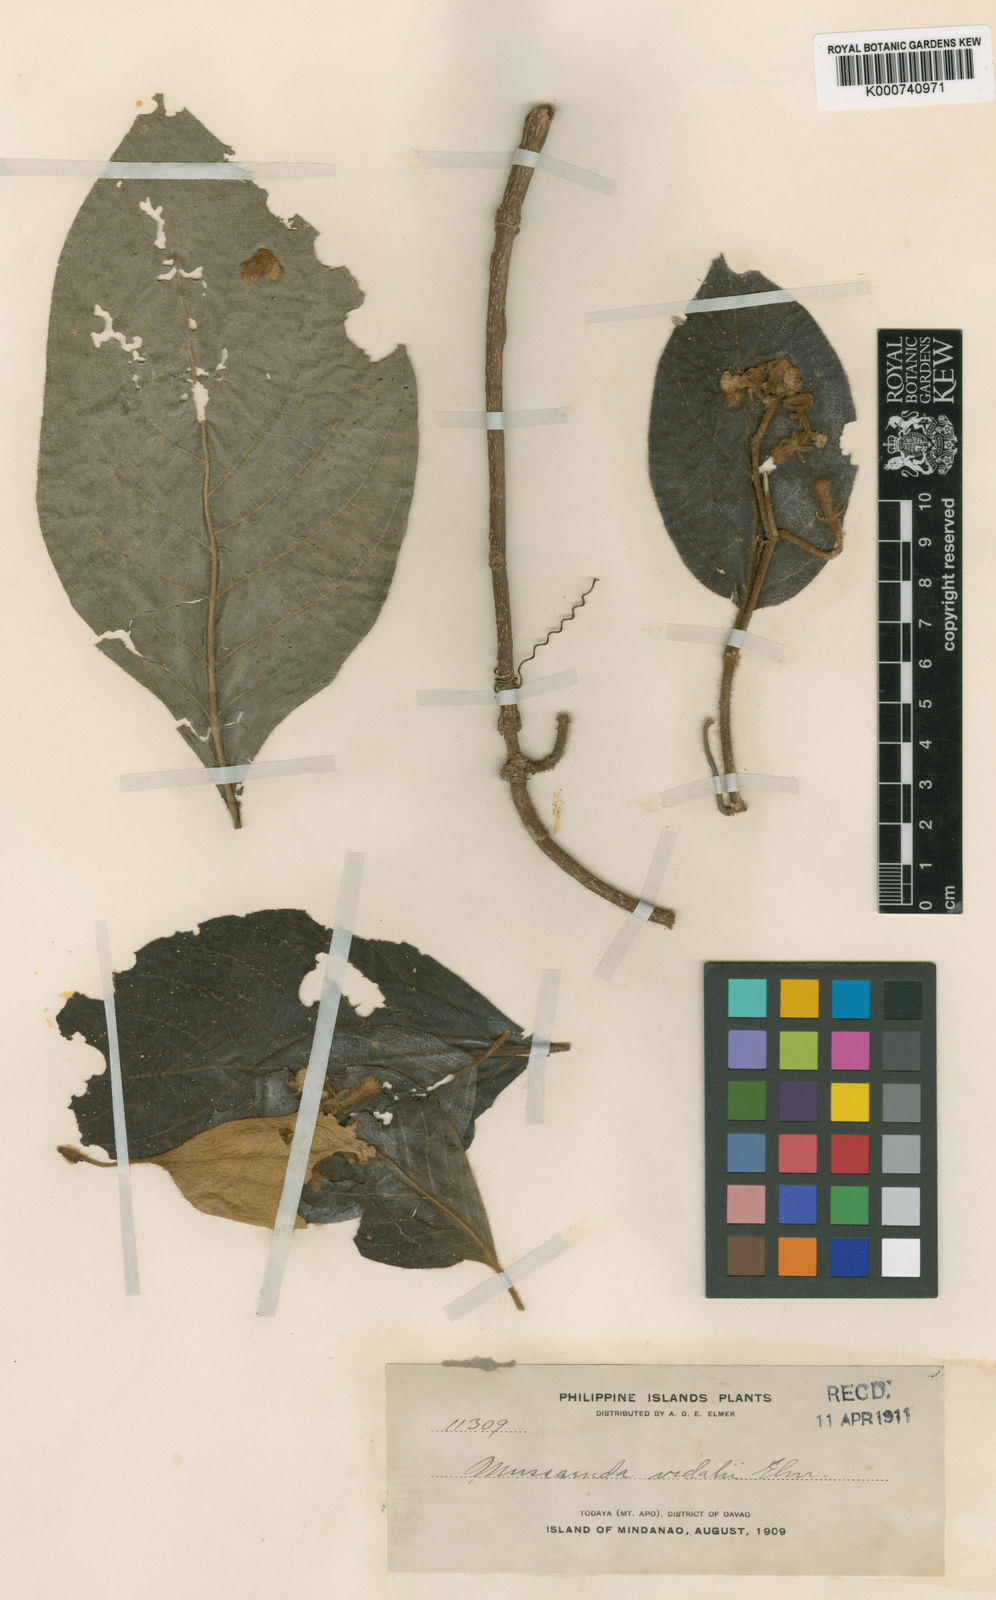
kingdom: Plantae
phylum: Tracheophyta
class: Magnoliopsida
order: Gentianales
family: Rubiaceae
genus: Mussaenda
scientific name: Mussaenda vidalii
